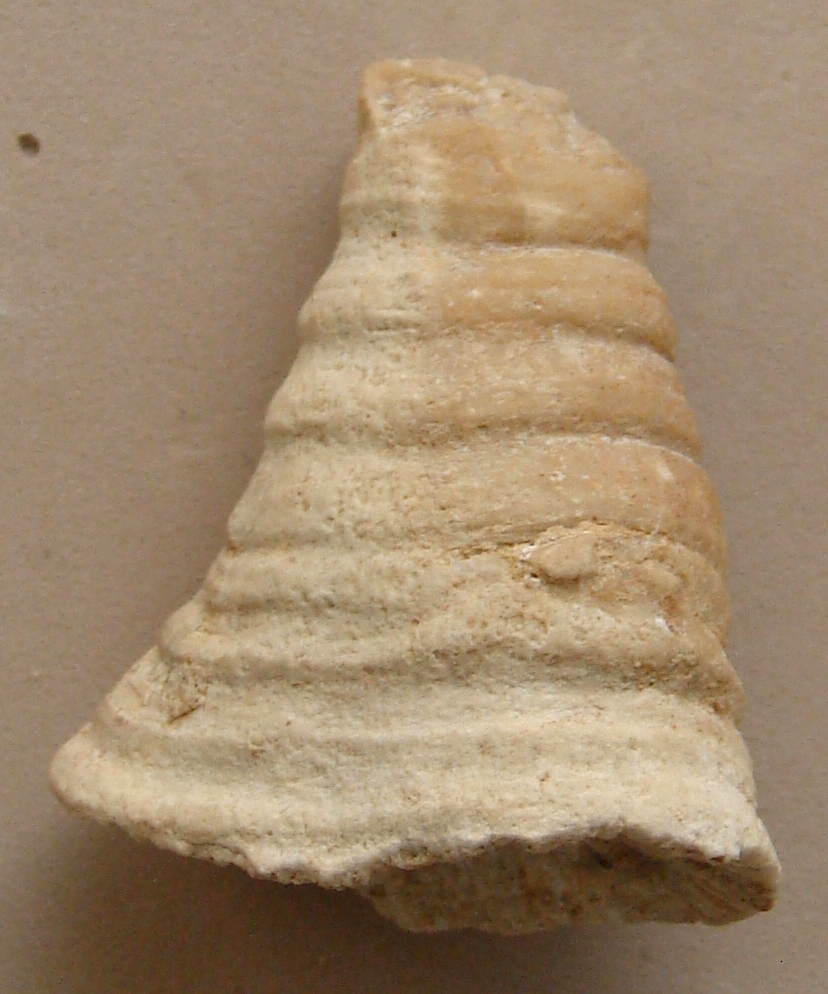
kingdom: Animalia
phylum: Cnidaria
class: Anthozoa
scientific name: Anthozoa
